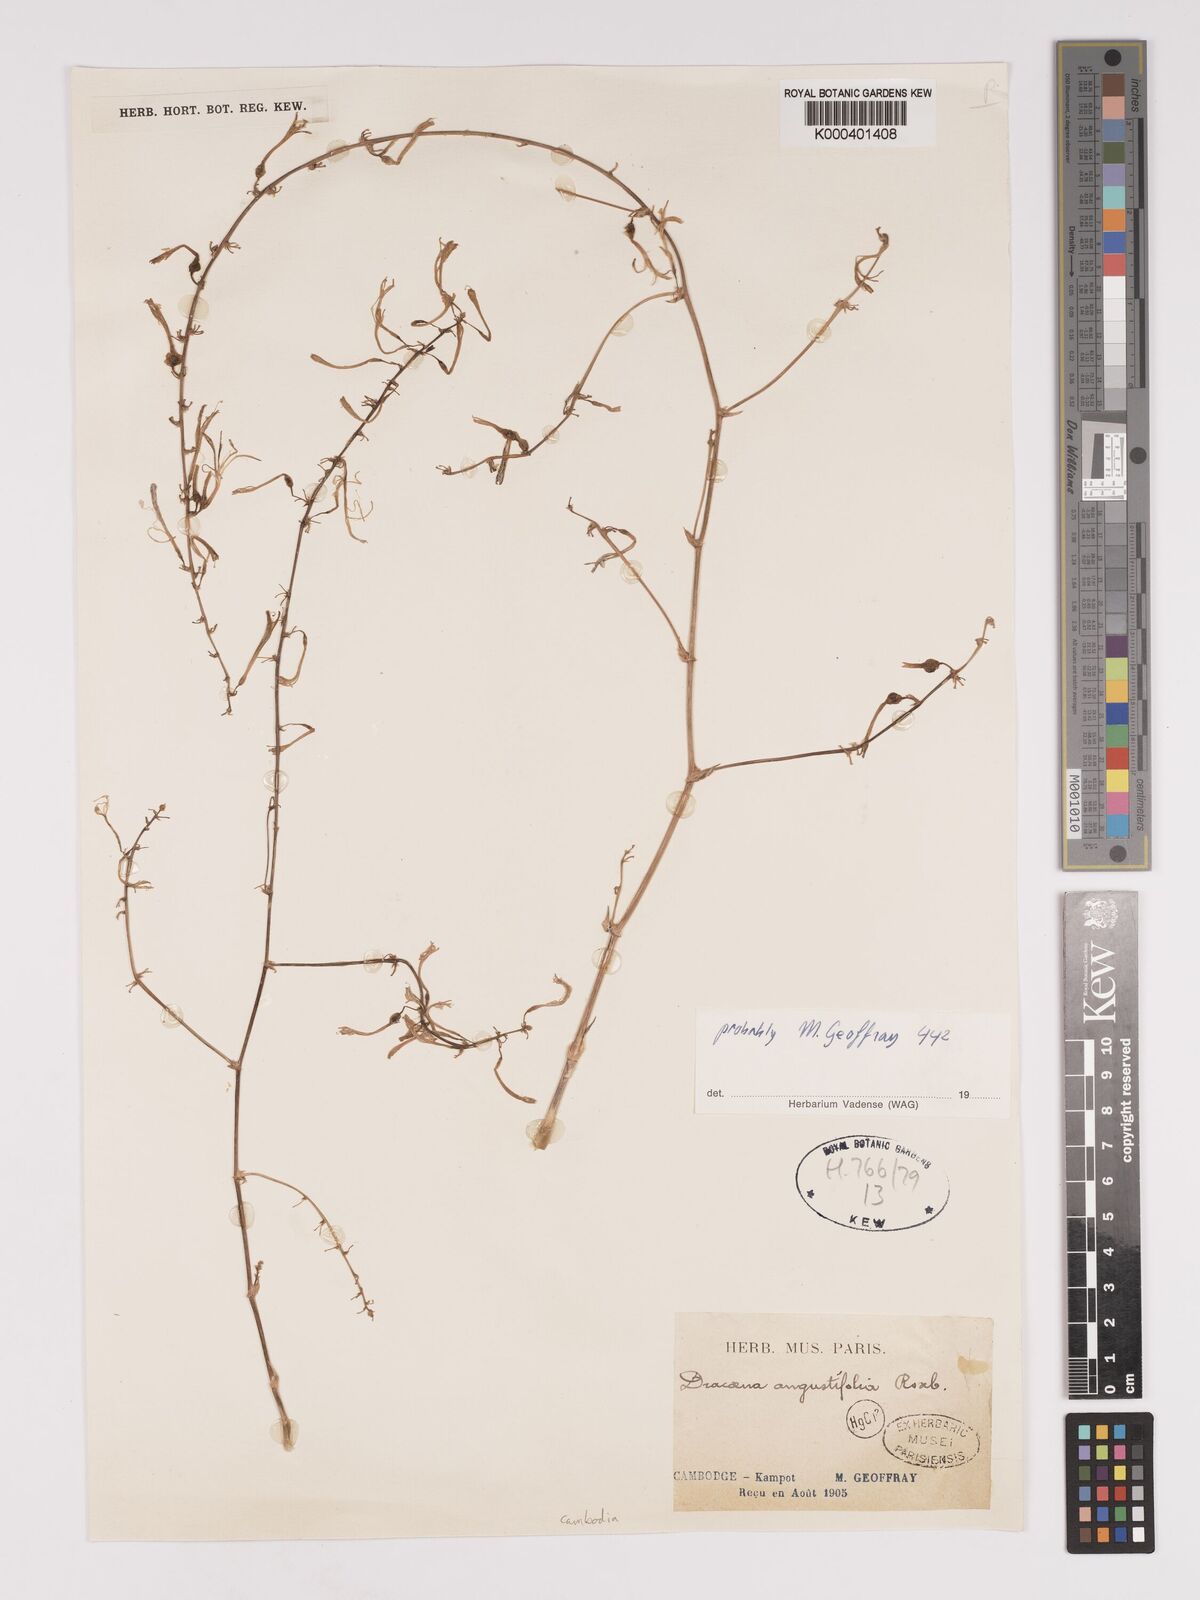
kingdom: Plantae
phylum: Tracheophyta
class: Liliopsida
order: Asparagales
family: Asparagaceae
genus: Dracaena
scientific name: Dracaena angustifolia
